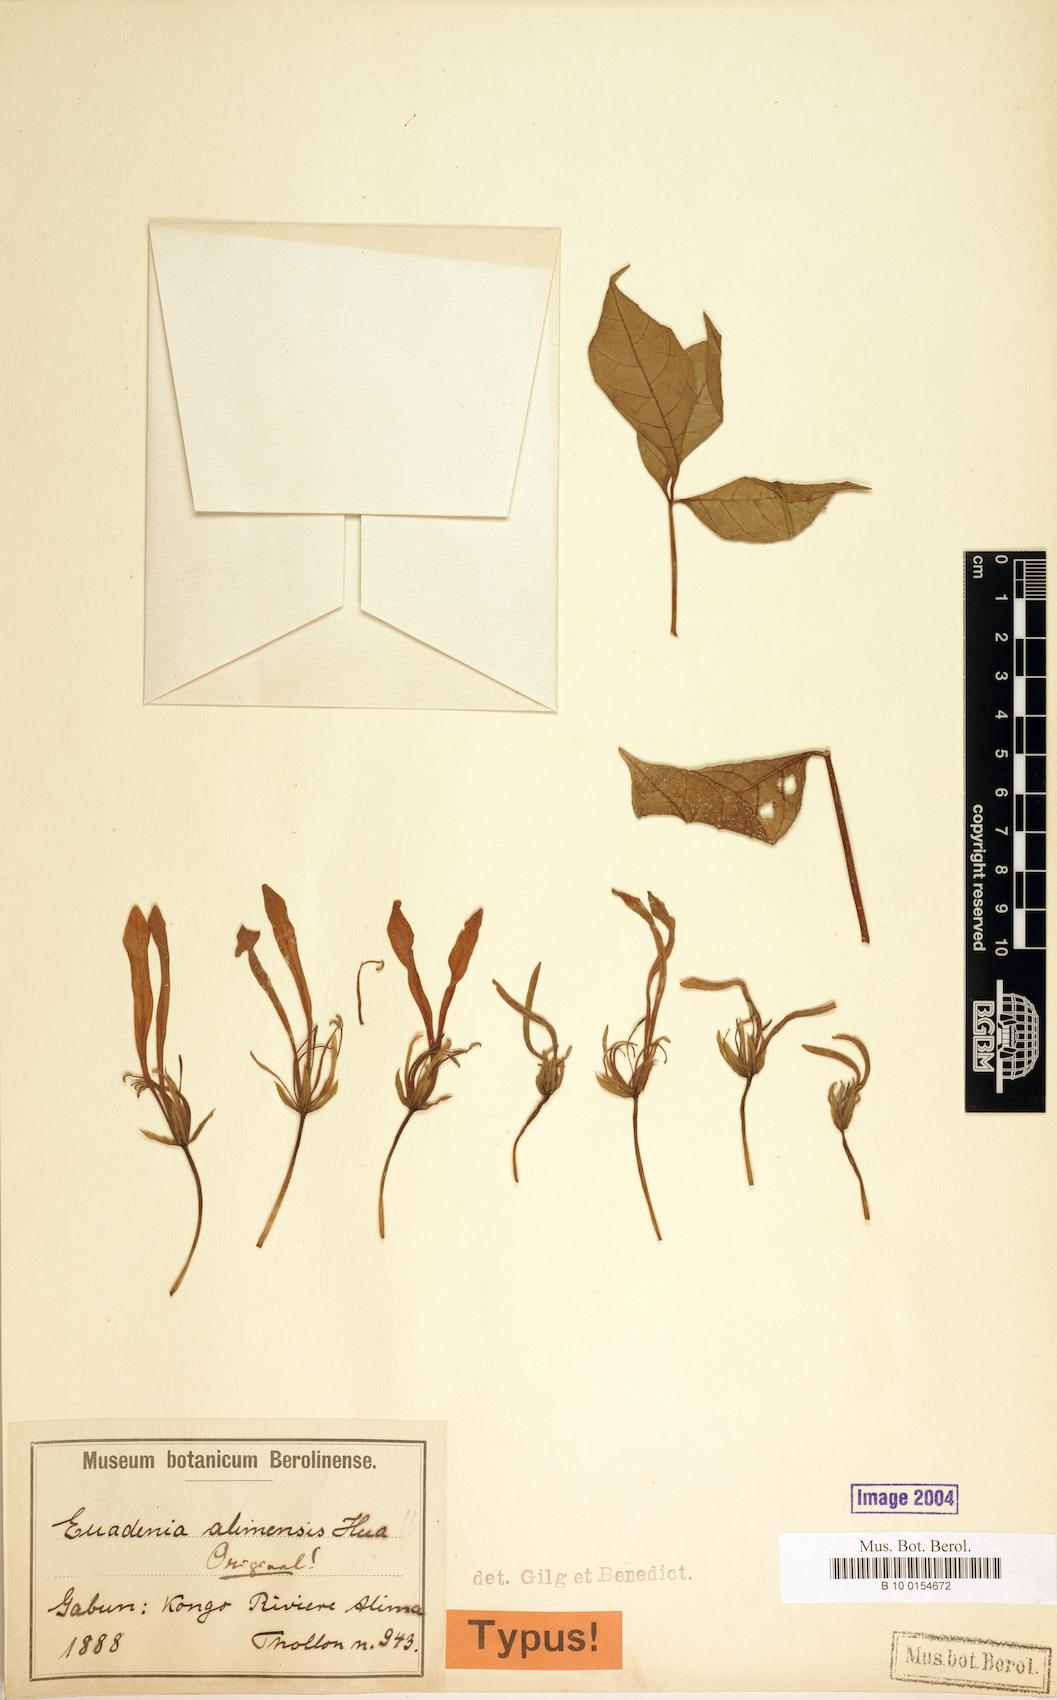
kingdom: Plantae
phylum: Tracheophyta
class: Magnoliopsida
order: Brassicales
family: Capparaceae
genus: Euadenia
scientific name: Euadenia eminens
